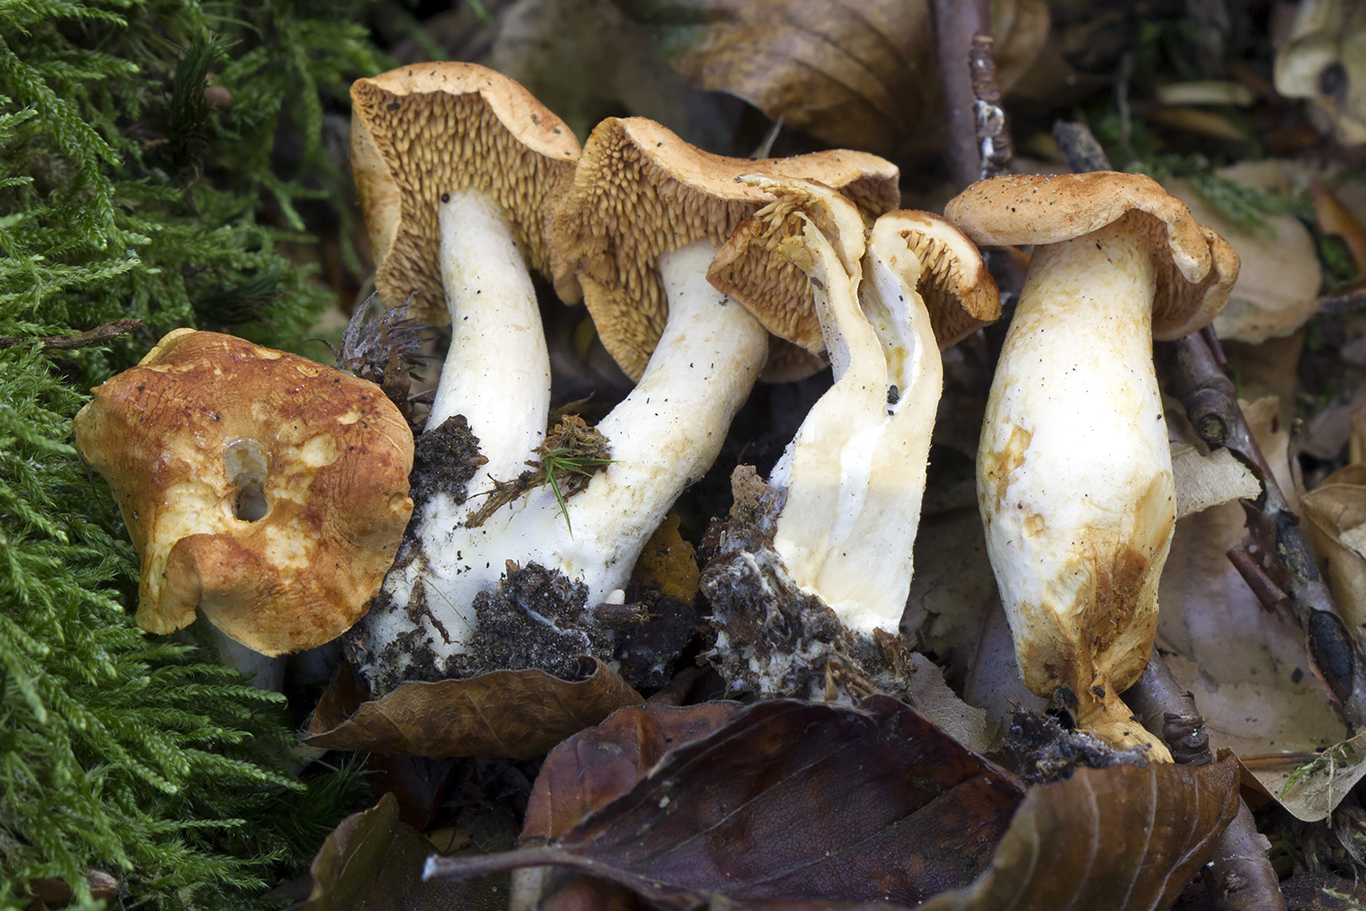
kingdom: Fungi
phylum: Basidiomycota
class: Agaricomycetes
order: Cantharellales
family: Hydnaceae
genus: Hydnum
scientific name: Hydnum mulsicolor
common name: mjødfarvet pigsvamp
